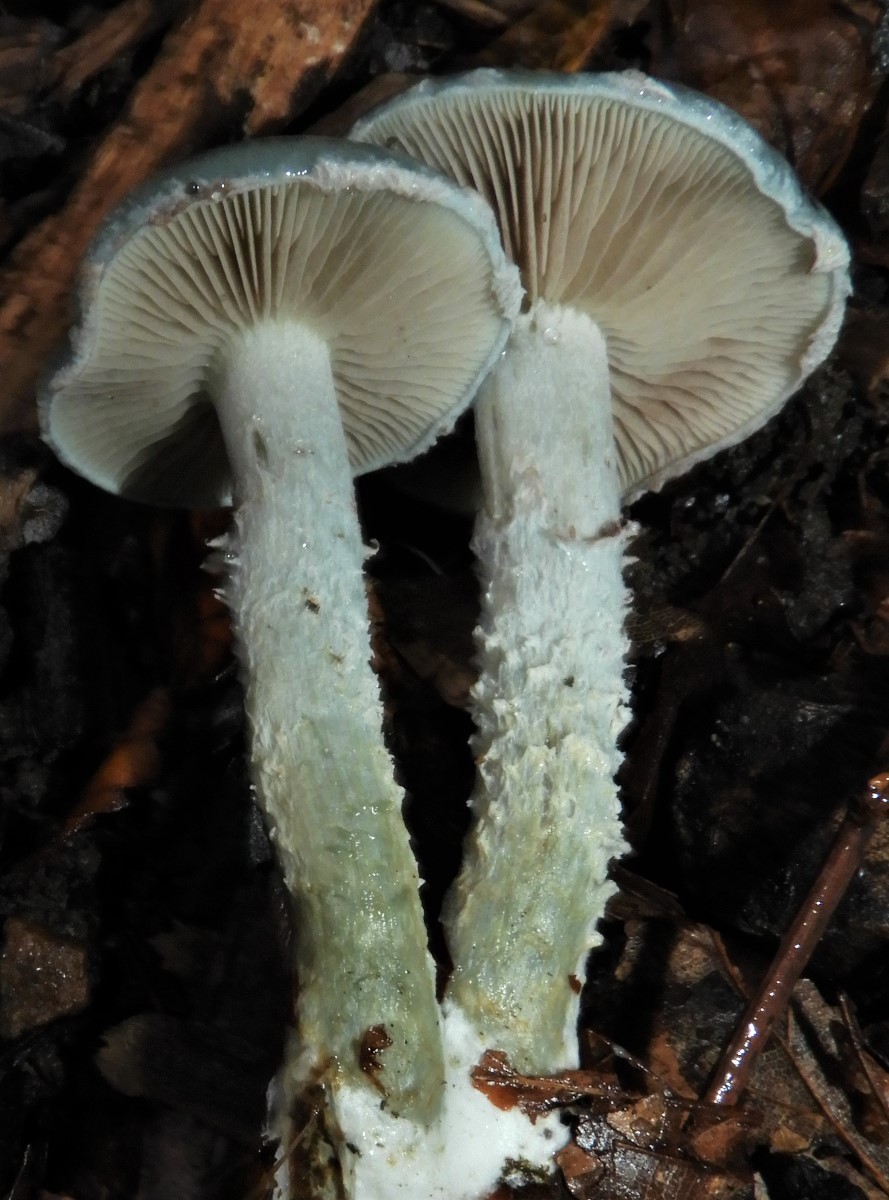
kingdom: Fungi
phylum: Basidiomycota
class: Agaricomycetes
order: Agaricales
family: Strophariaceae
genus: Stropharia
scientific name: Stropharia cyanea
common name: blågrøn bredblad
